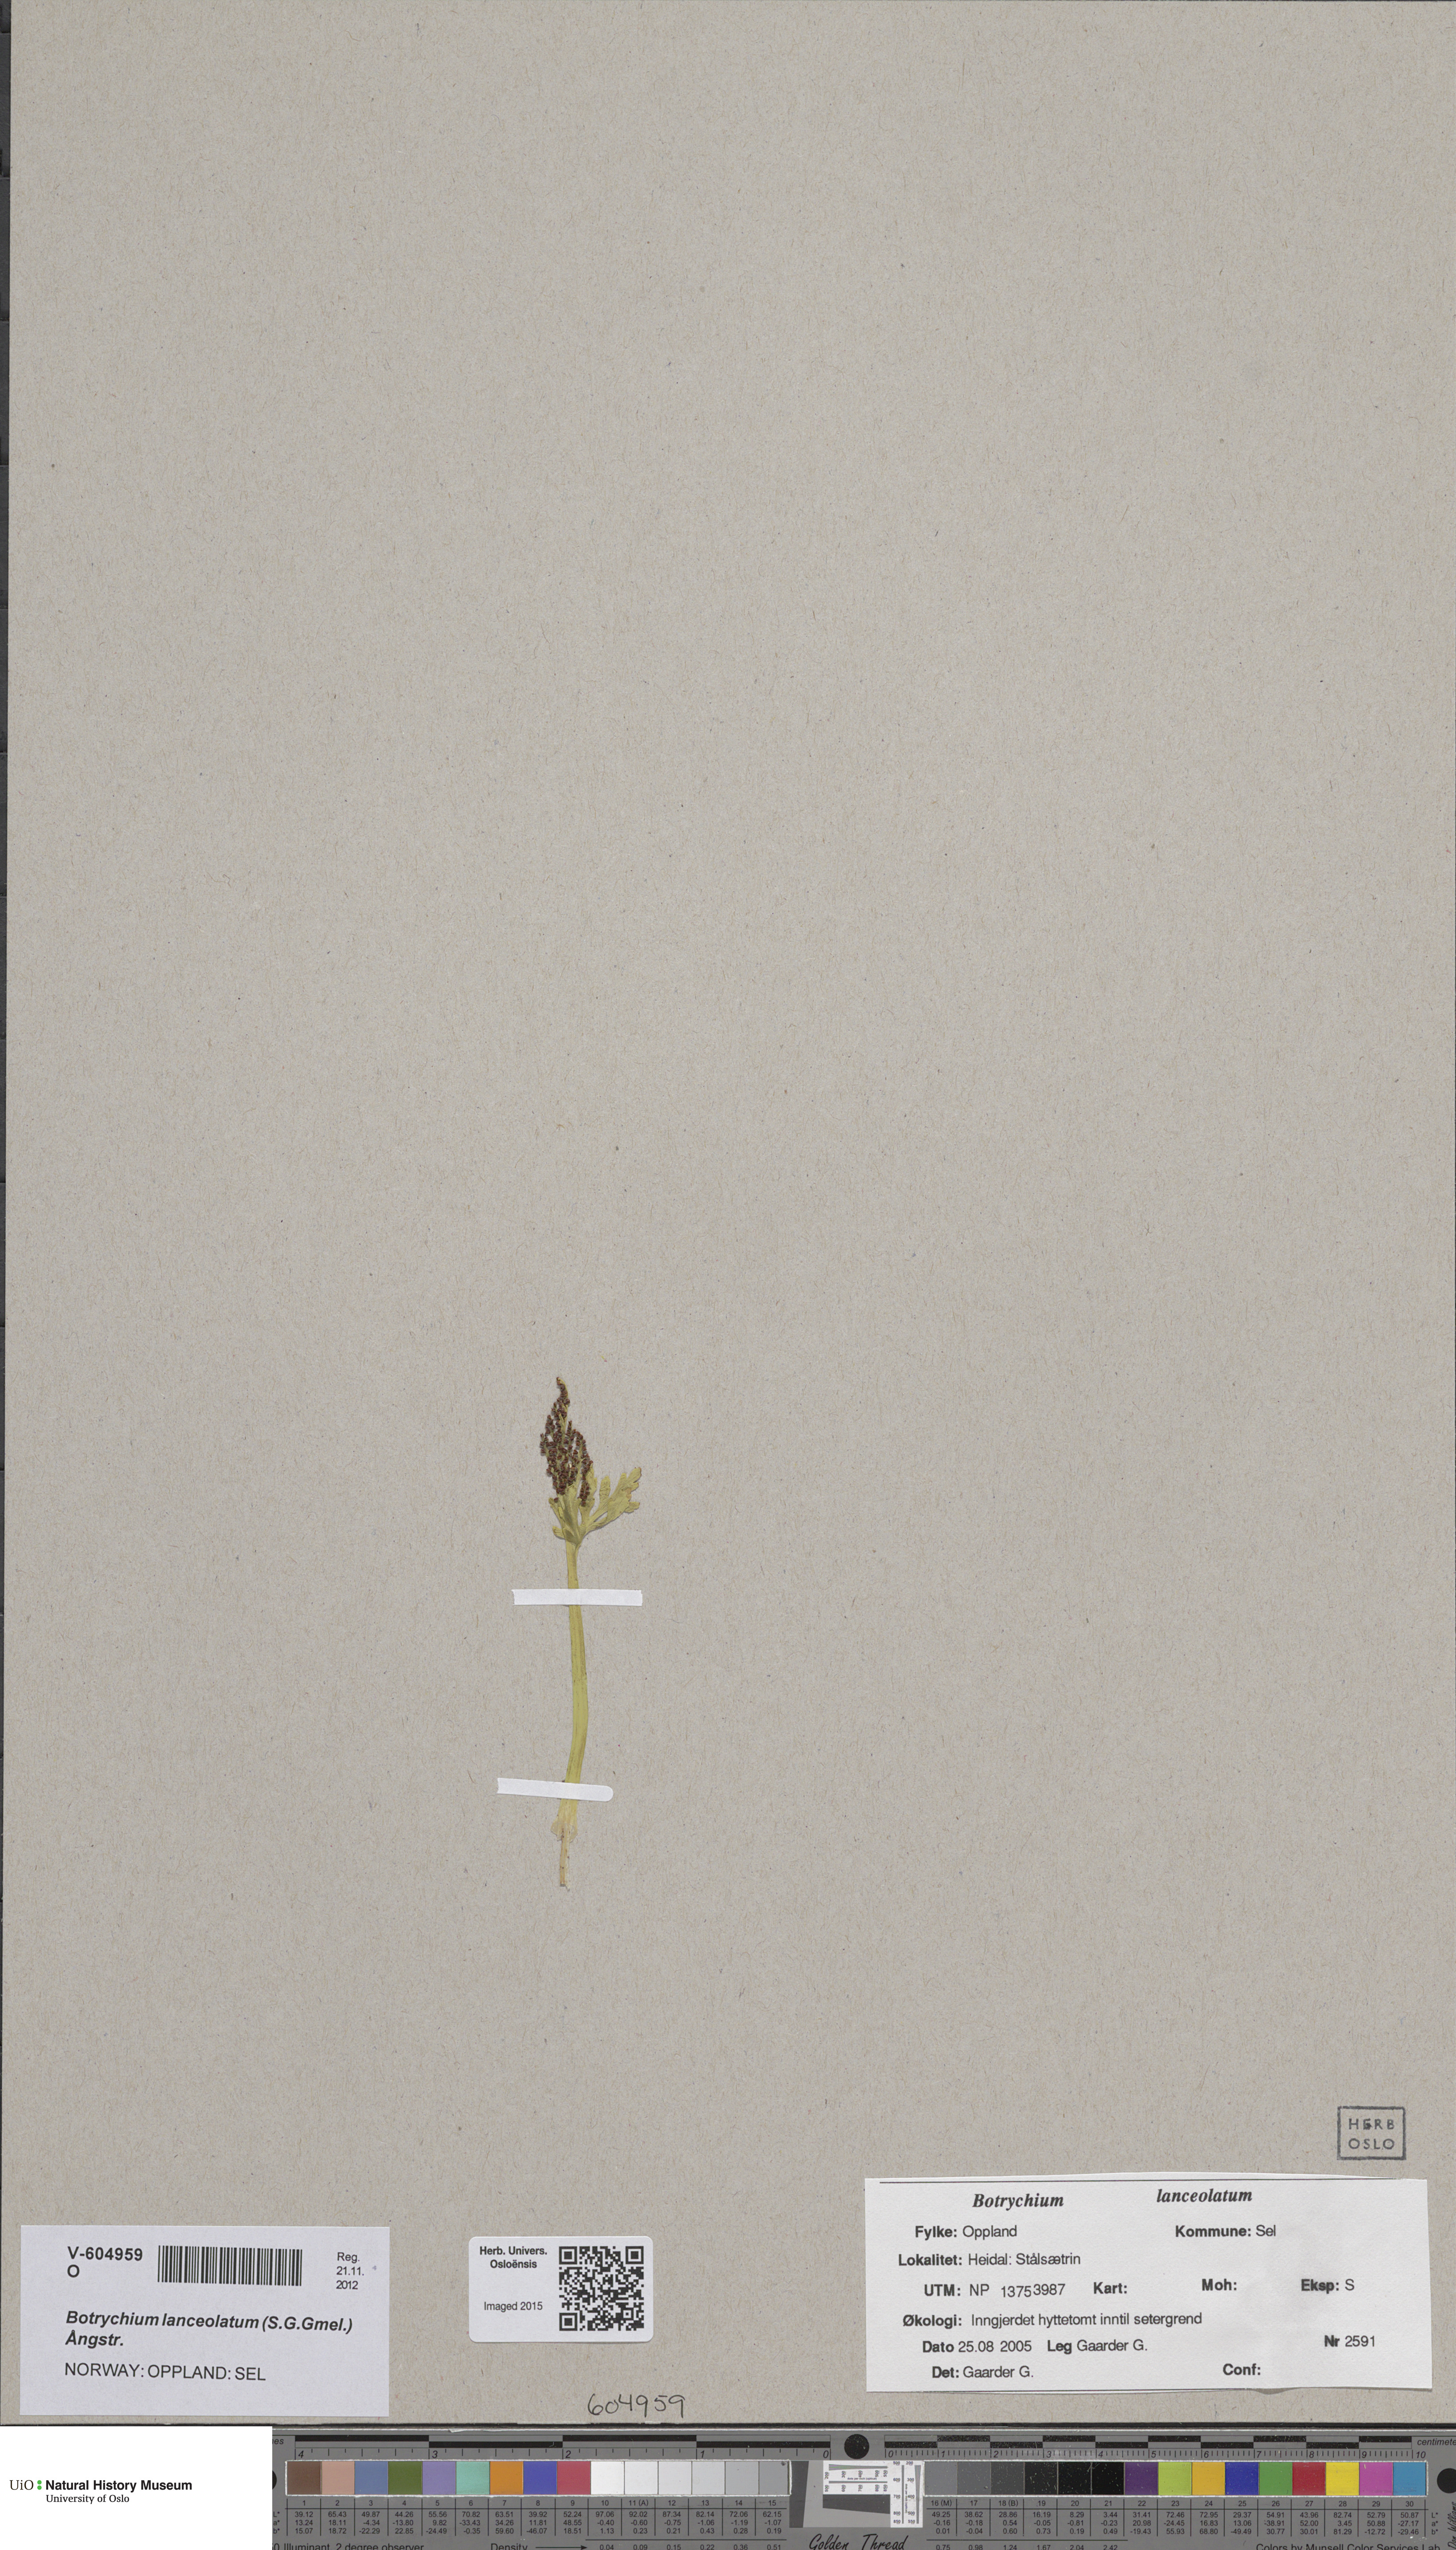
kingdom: Plantae
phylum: Tracheophyta
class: Polypodiopsida
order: Ophioglossales
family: Ophioglossaceae
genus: Botrychium
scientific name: Botrychium lanceolatum
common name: Lance-leaved moonwort
